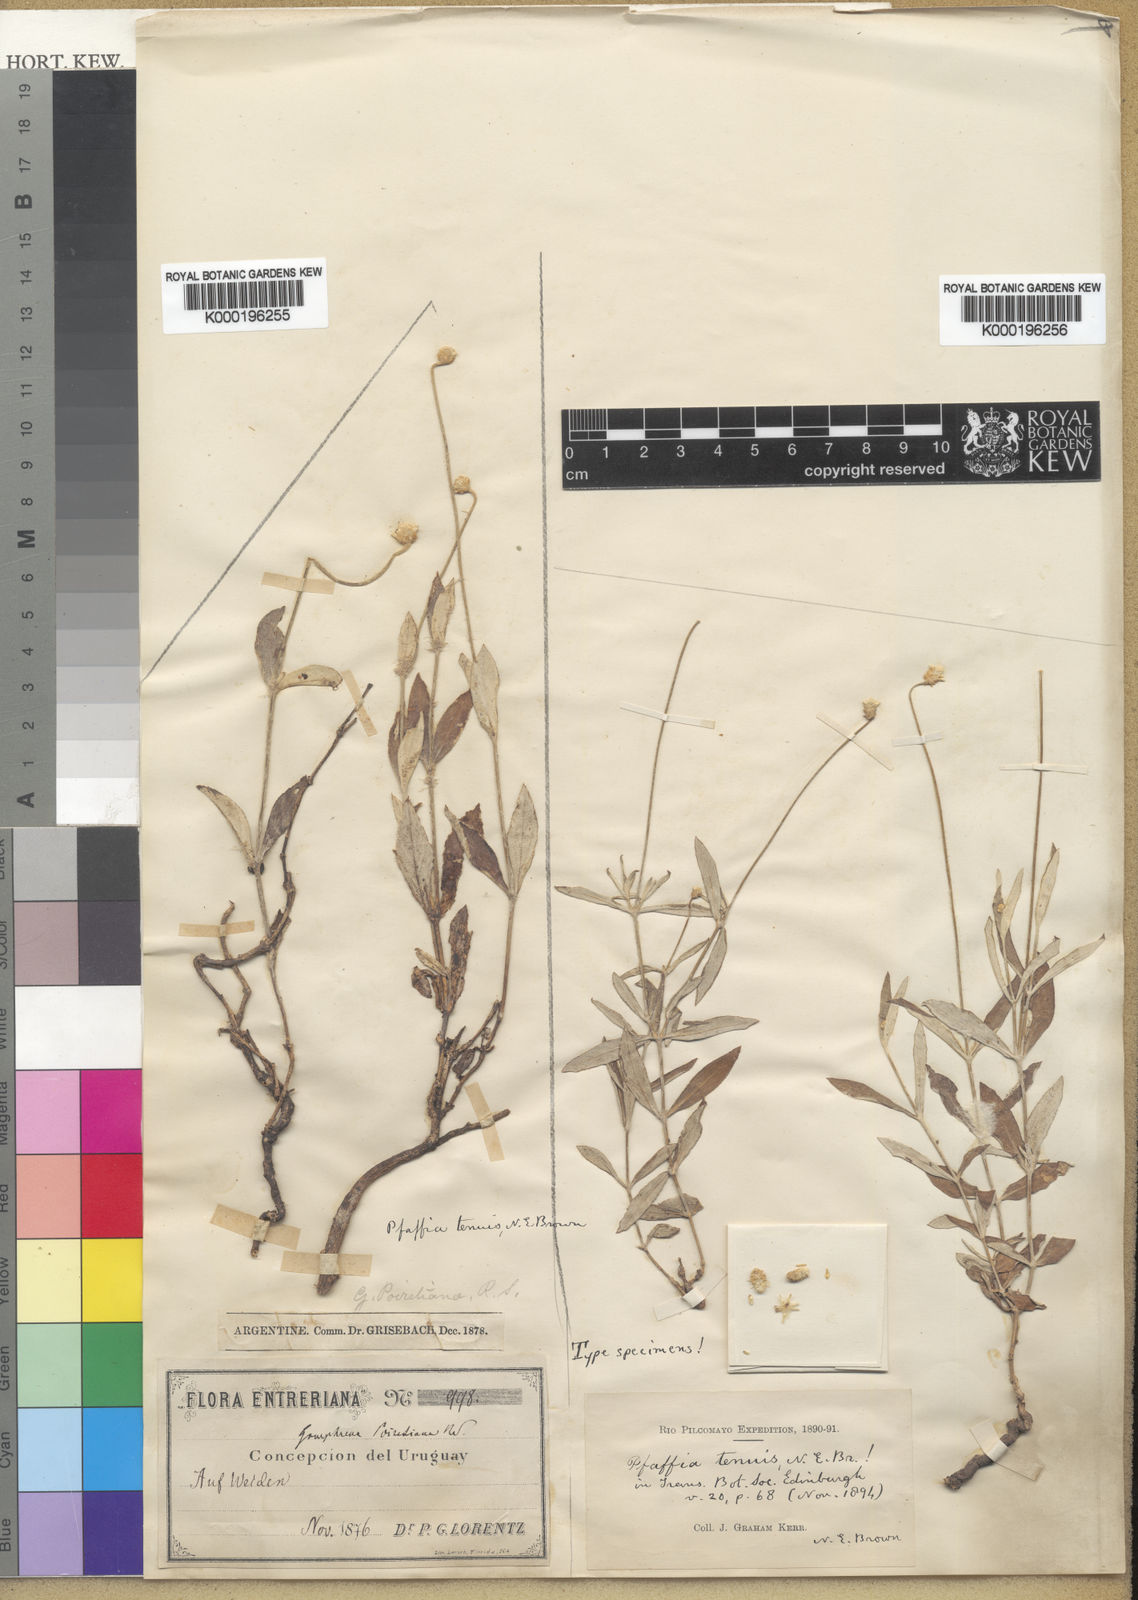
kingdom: Plantae
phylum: Tracheophyta
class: Magnoliopsida
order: Caryophyllales
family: Amaranthaceae
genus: Pfaffia
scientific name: Pfaffia gnaphalioides
